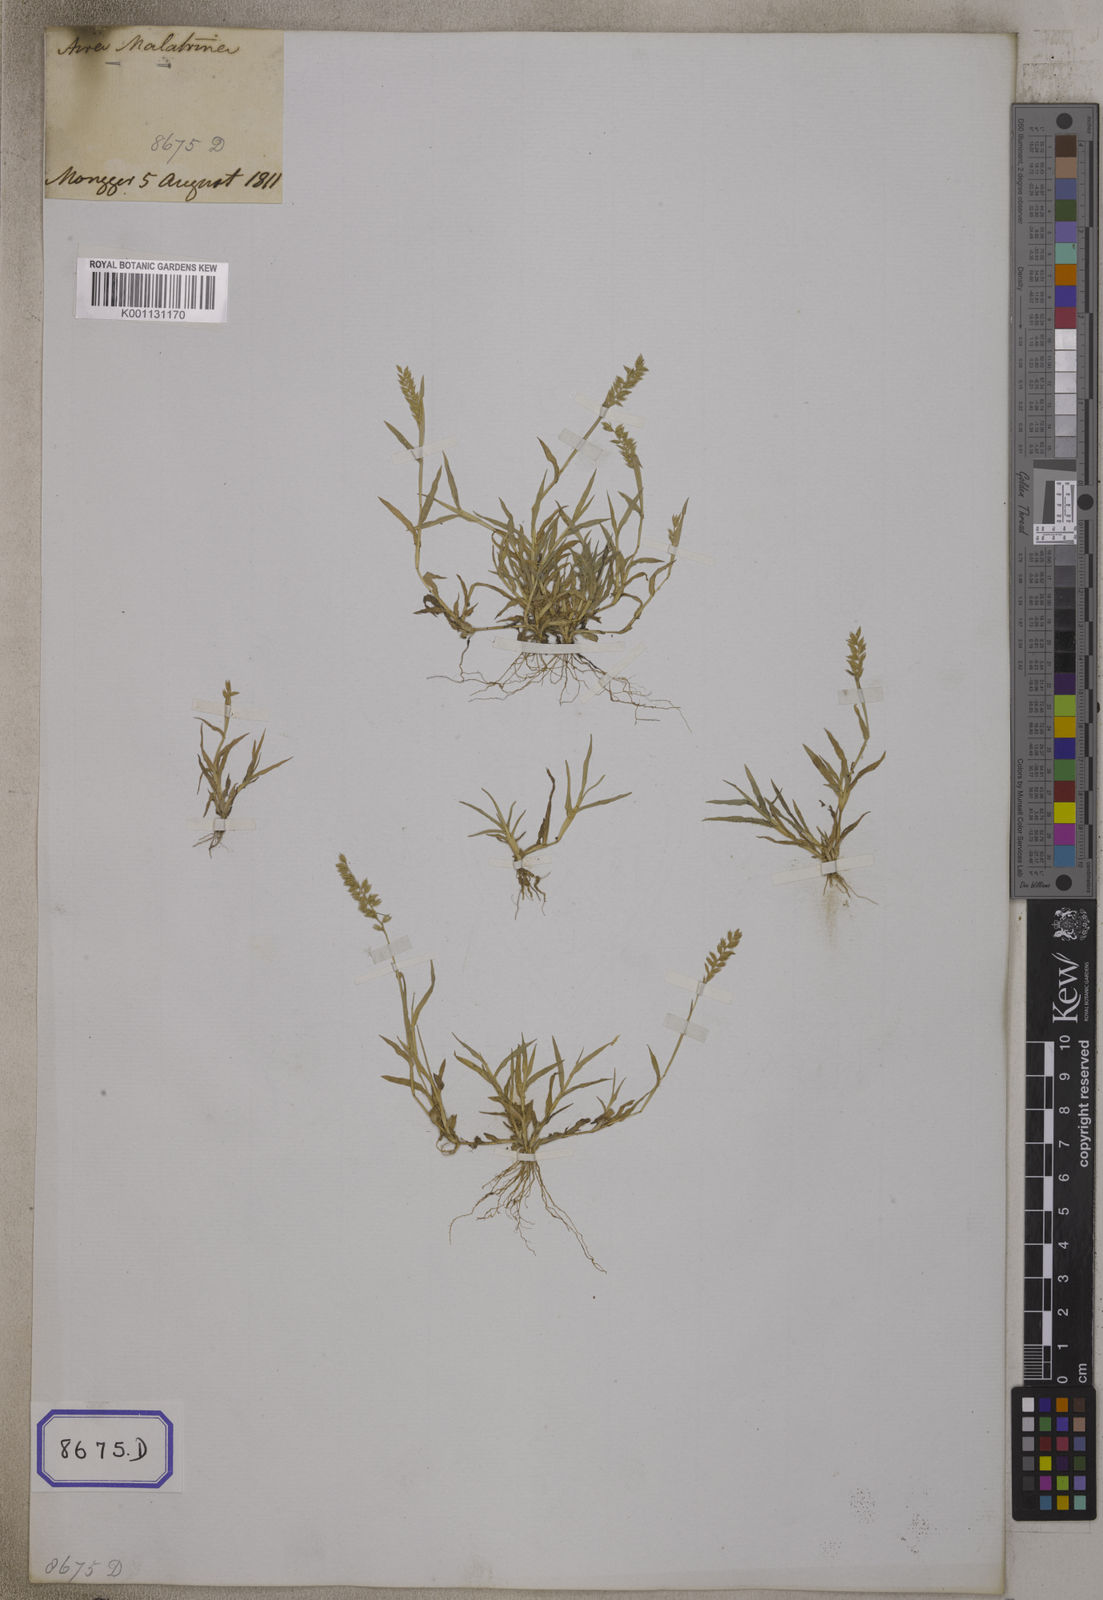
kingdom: Plantae
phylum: Tracheophyta
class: Liliopsida
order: Poales
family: Poaceae
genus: Tragus
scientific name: Tragus racemosus
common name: European bur-grass
